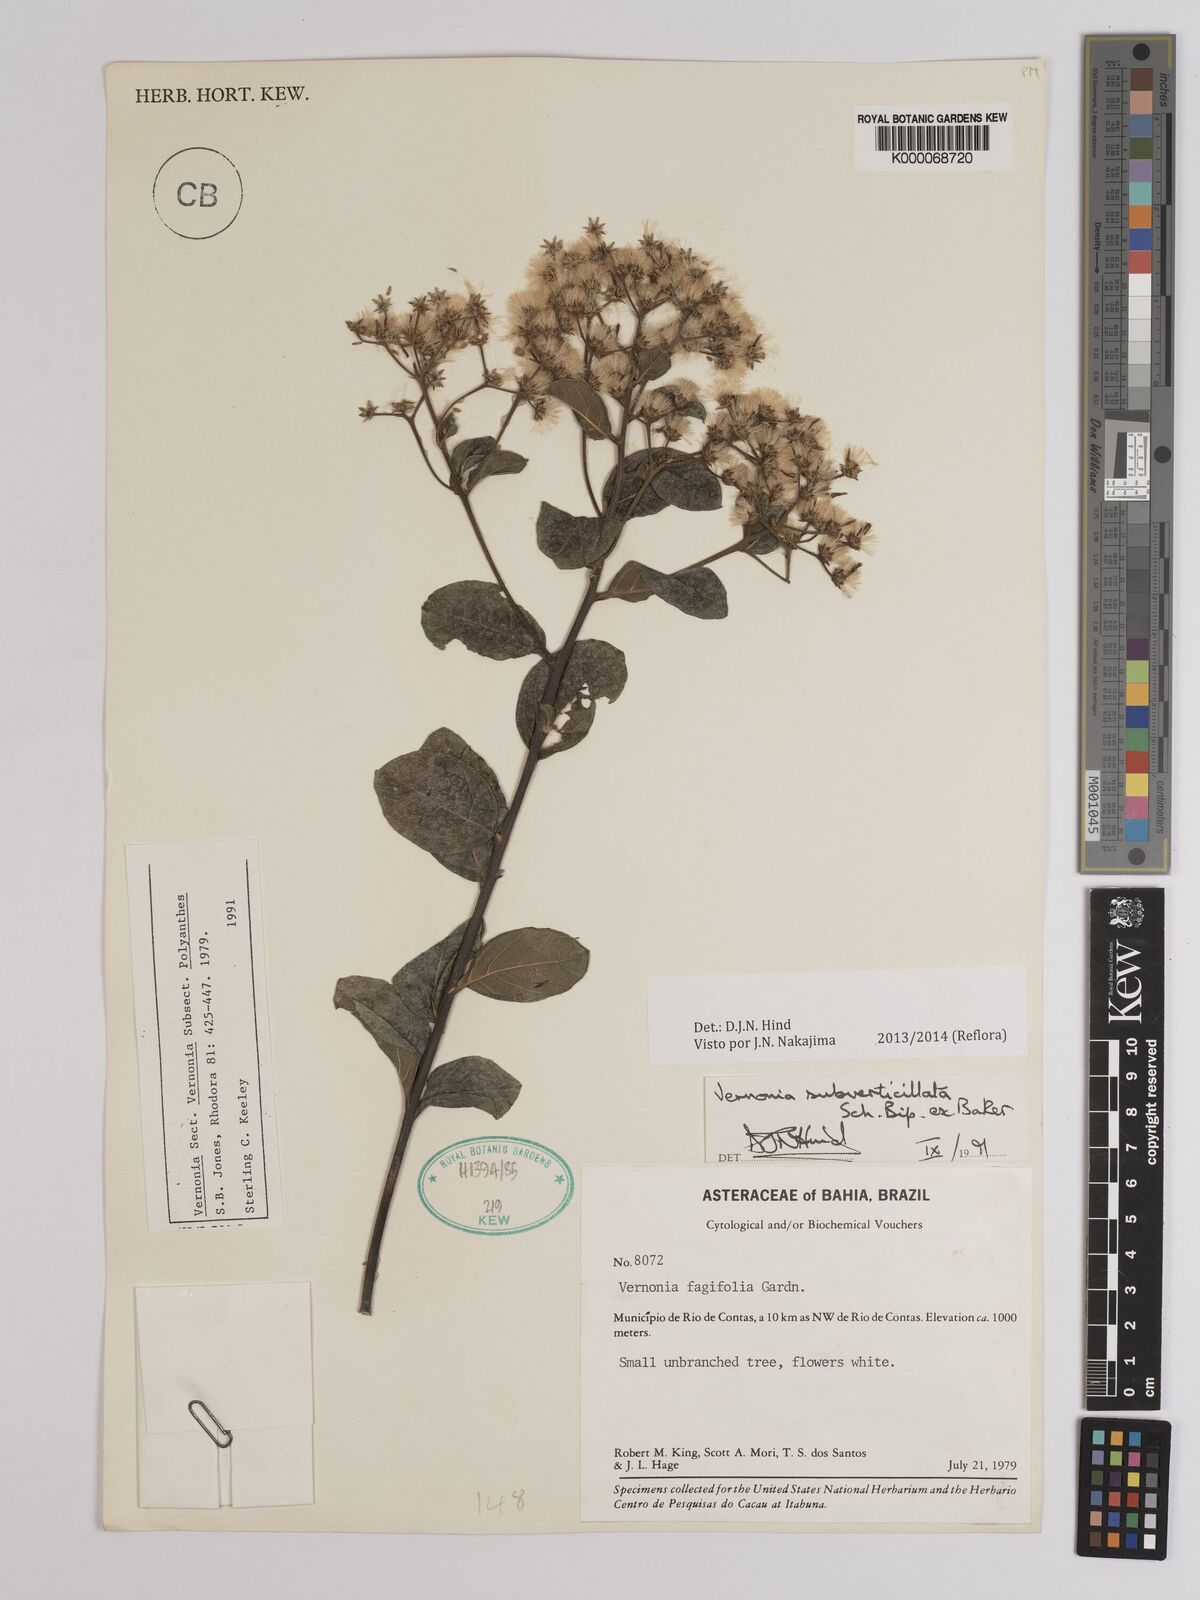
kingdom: Plantae
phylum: Tracheophyta
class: Magnoliopsida
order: Asterales
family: Asteraceae
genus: Vernonia
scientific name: Vernonia
